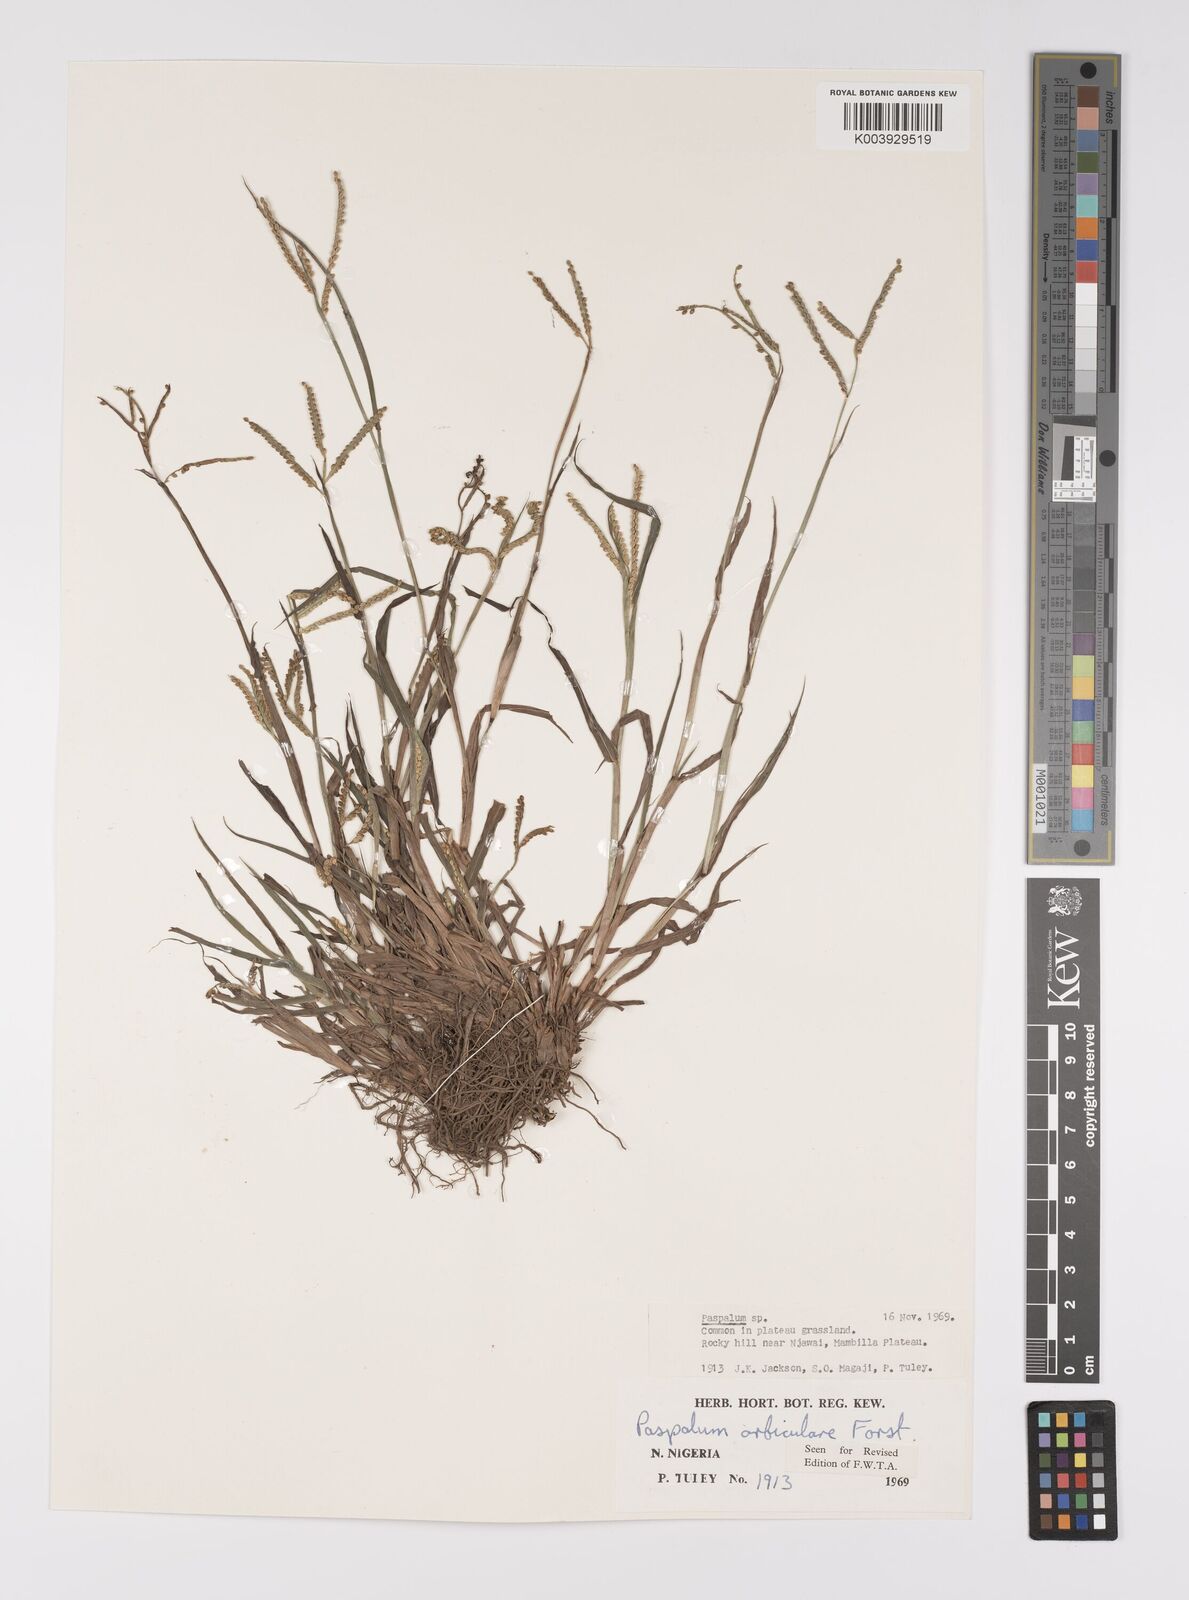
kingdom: Plantae
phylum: Tracheophyta
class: Liliopsida
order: Poales
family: Poaceae
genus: Paspalum
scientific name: Paspalum scrobiculatum
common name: Kodo millet
